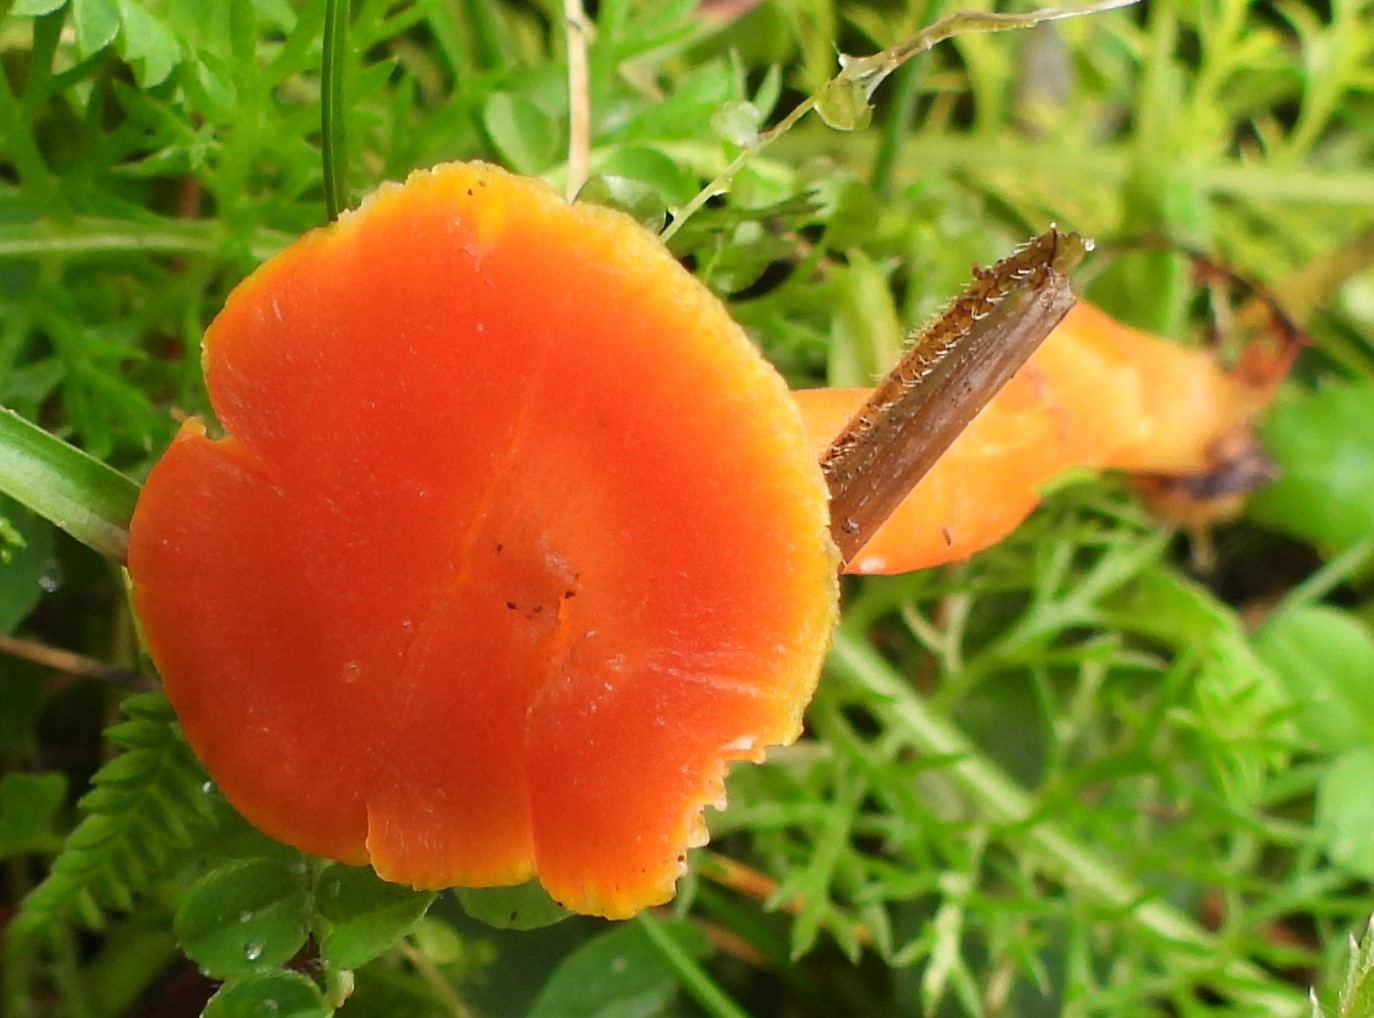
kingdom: Fungi
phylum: Basidiomycota
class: Agaricomycetes
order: Agaricales
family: Hygrophoraceae
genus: Hygrocybe
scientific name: Hygrocybe miniata
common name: mønje-vokshat
